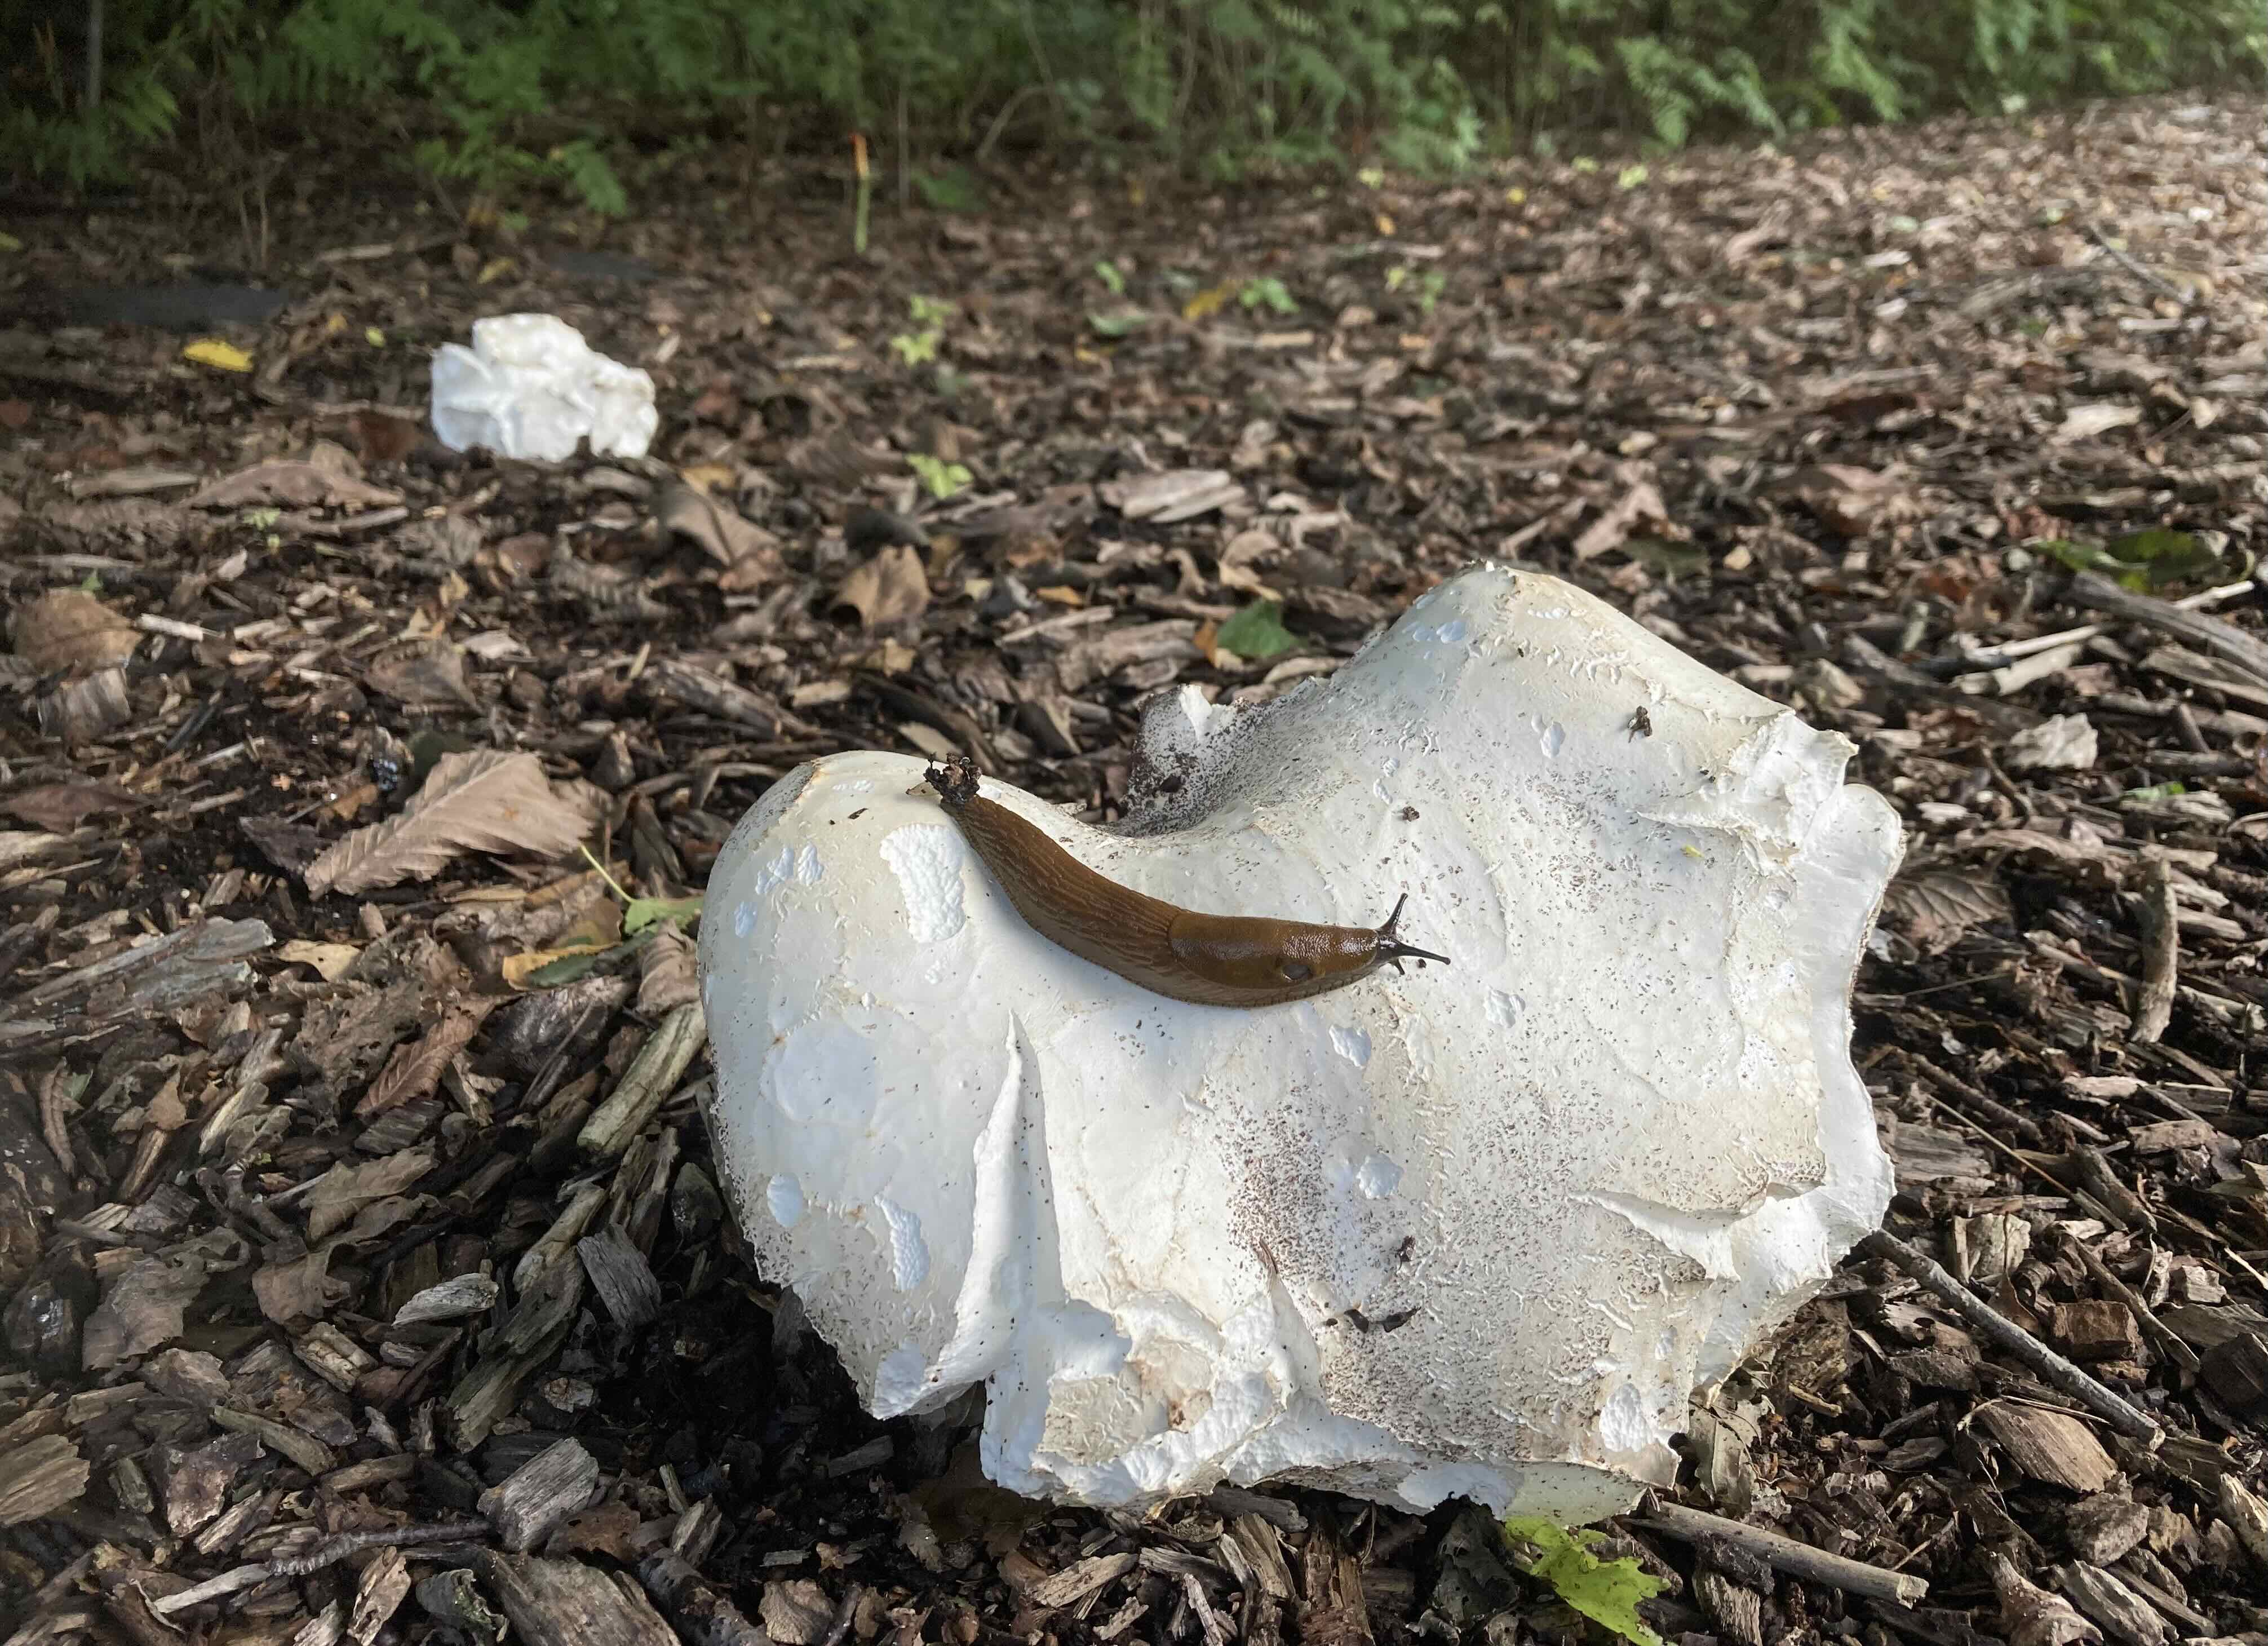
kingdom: Fungi
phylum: Basidiomycota
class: Agaricomycetes
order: Agaricales
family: Lycoperdaceae
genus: Calvatia
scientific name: Calvatia gigantea
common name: kæmpestøvbold
